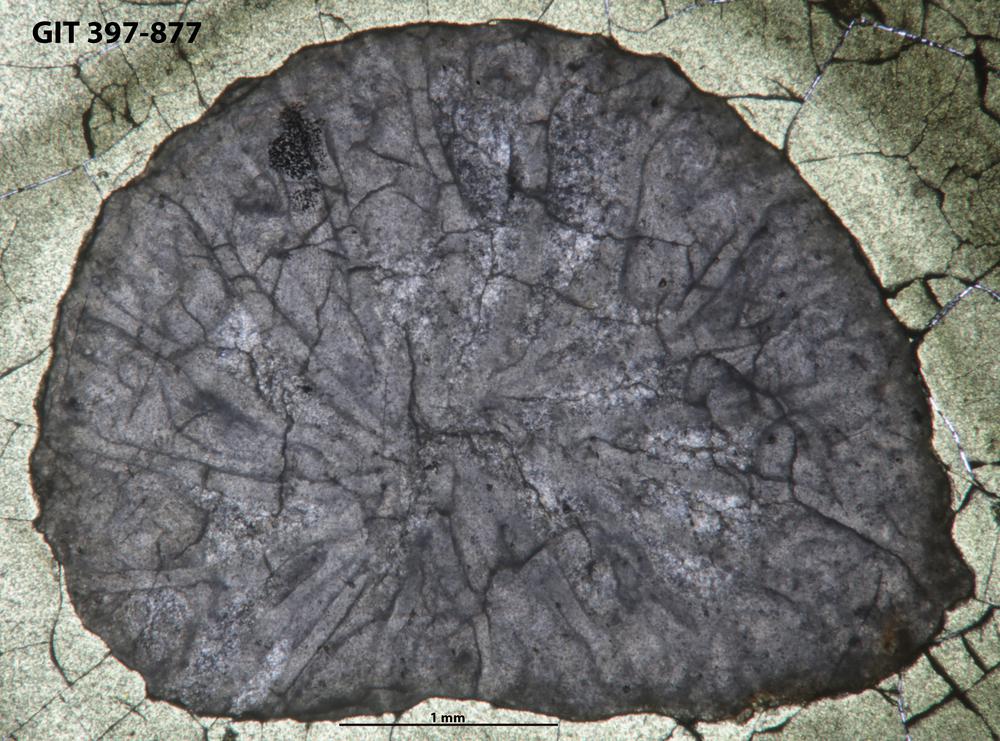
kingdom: Animalia
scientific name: Animalia
